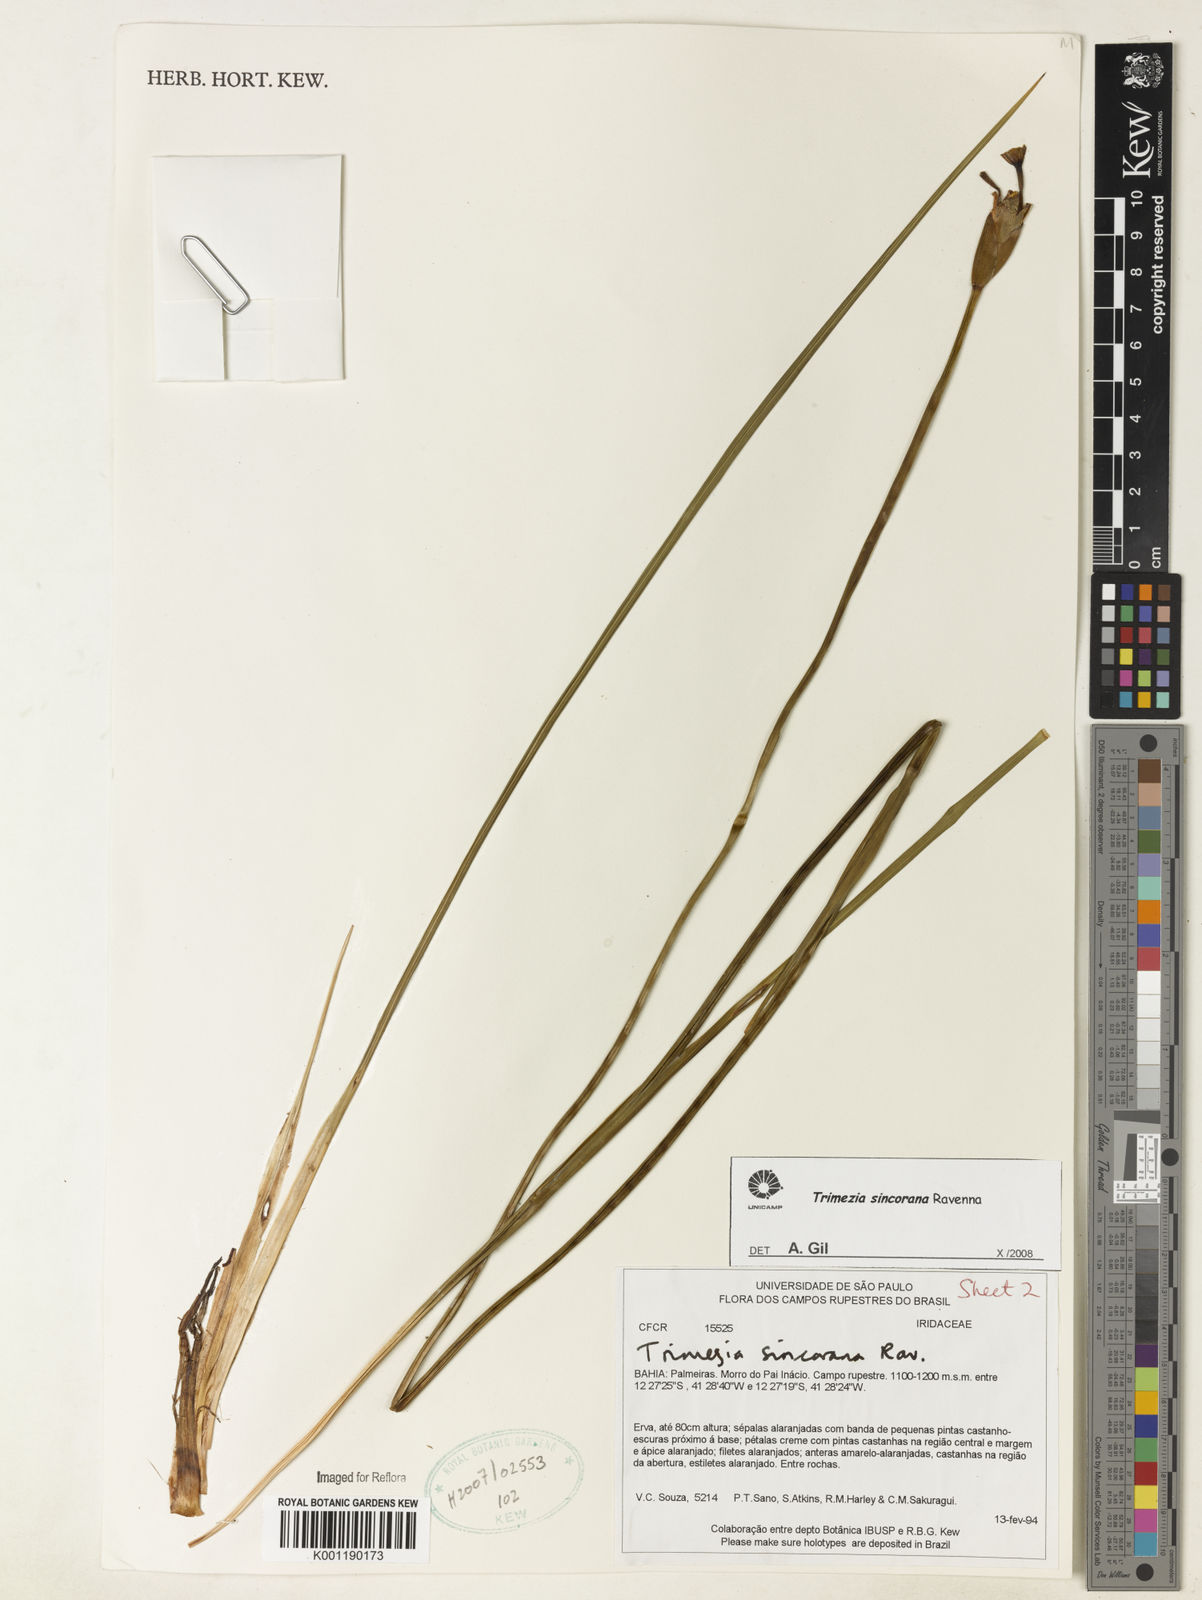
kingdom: Plantae
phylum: Tracheophyta
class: Liliopsida
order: Asparagales
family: Iridaceae
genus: Trimezia
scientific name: Trimezia spathata
